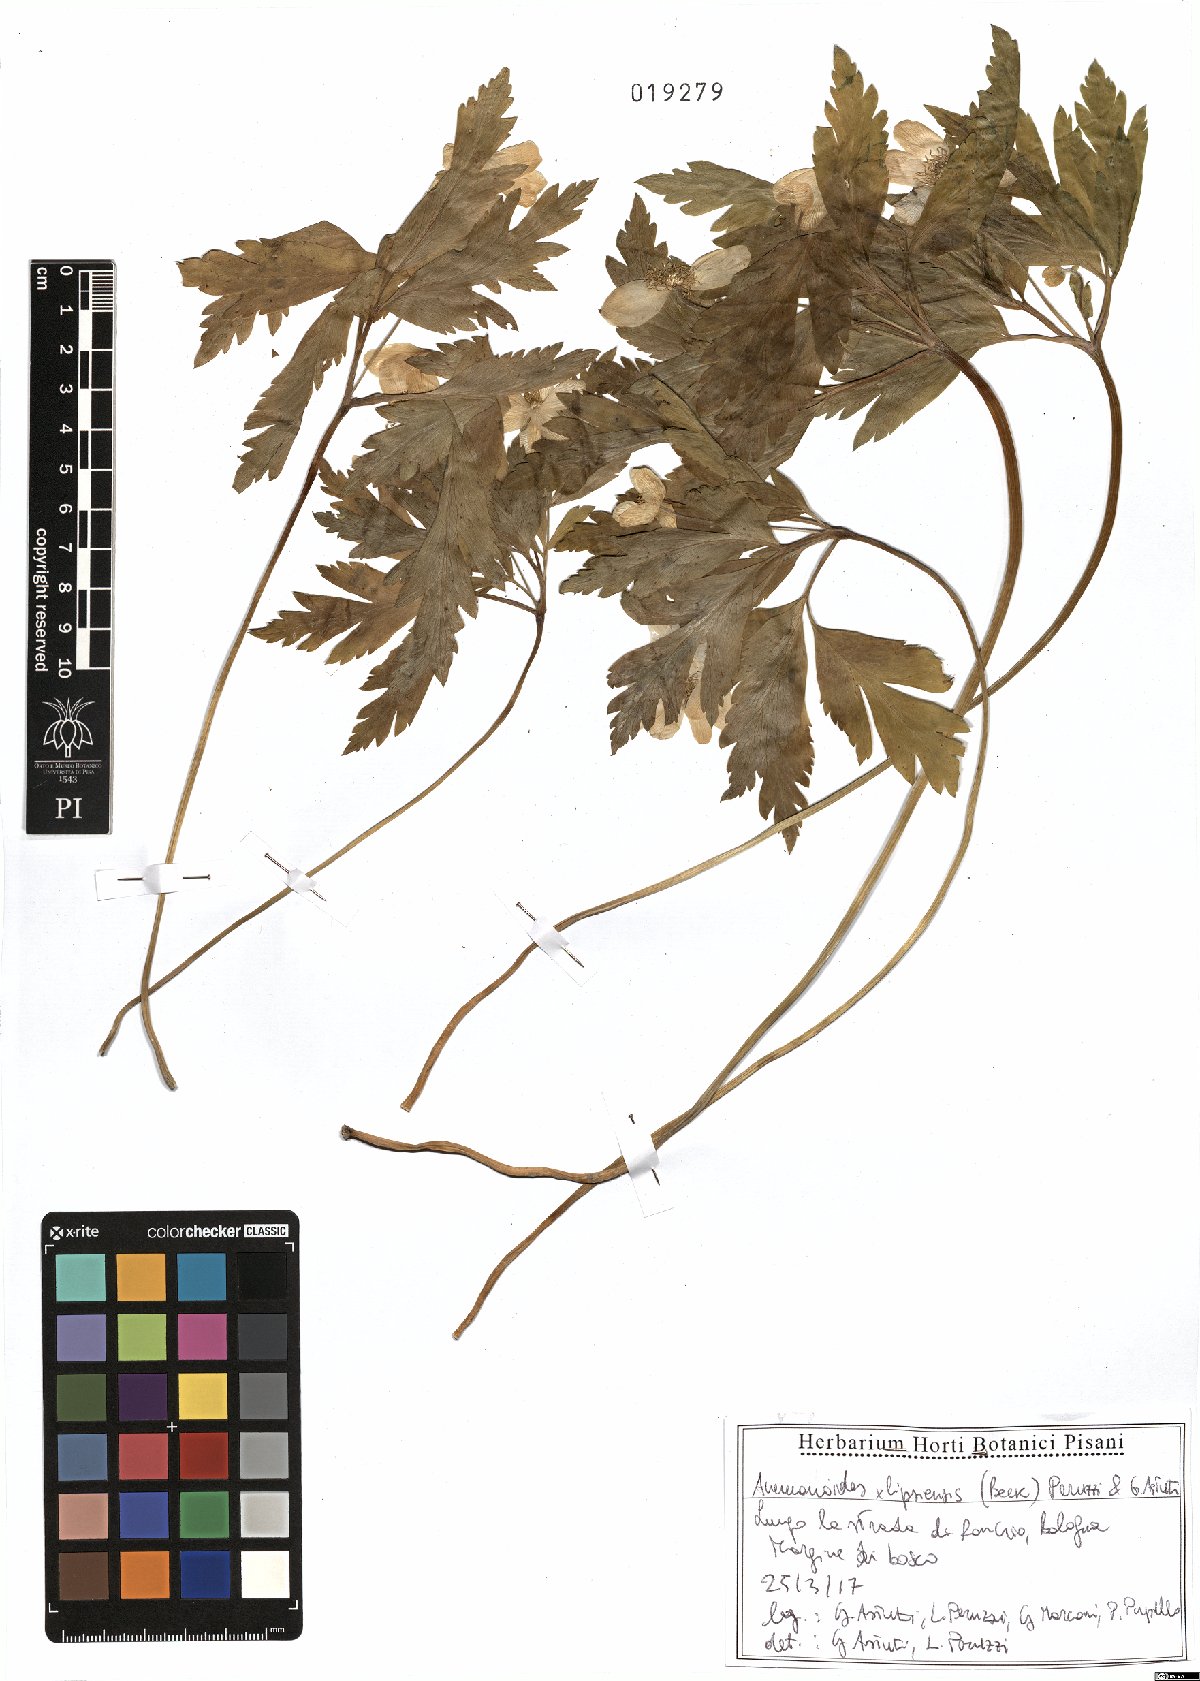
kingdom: Plantae
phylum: Tracheophyta
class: Magnoliopsida
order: Ranunculales
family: Ranunculaceae
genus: Anemone
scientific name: Anemone lipsiensis
